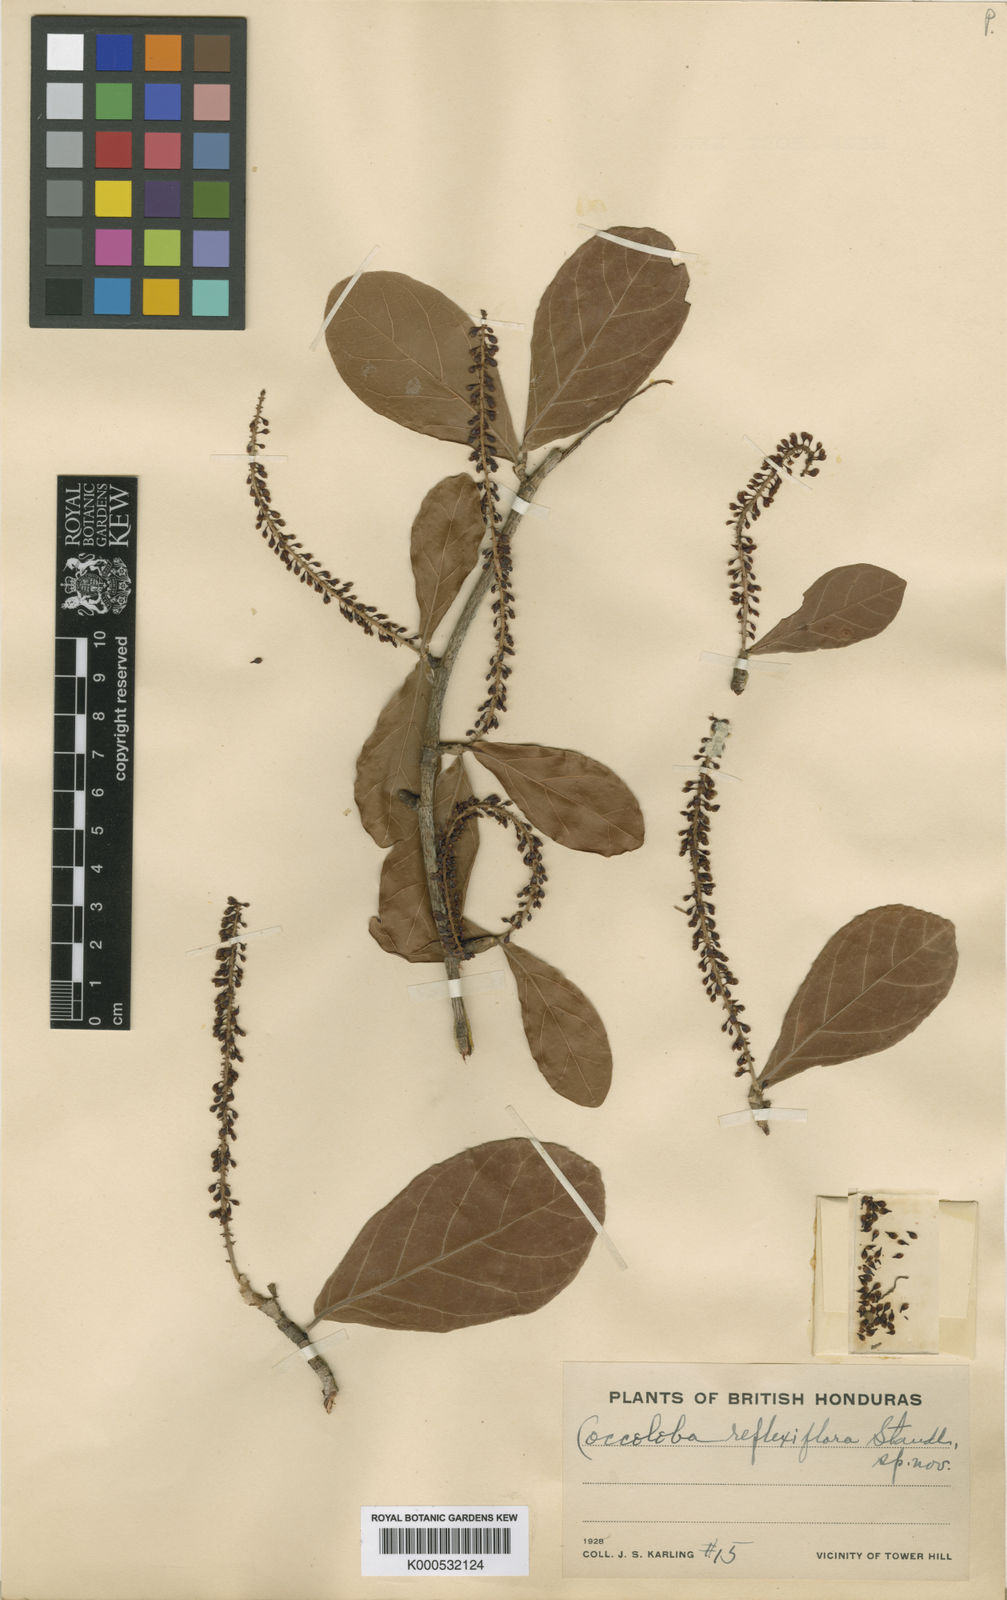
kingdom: Plantae
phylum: Tracheophyta
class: Magnoliopsida
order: Caryophyllales
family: Polygonaceae
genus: Coccoloba
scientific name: Coccoloba reflexiflora
